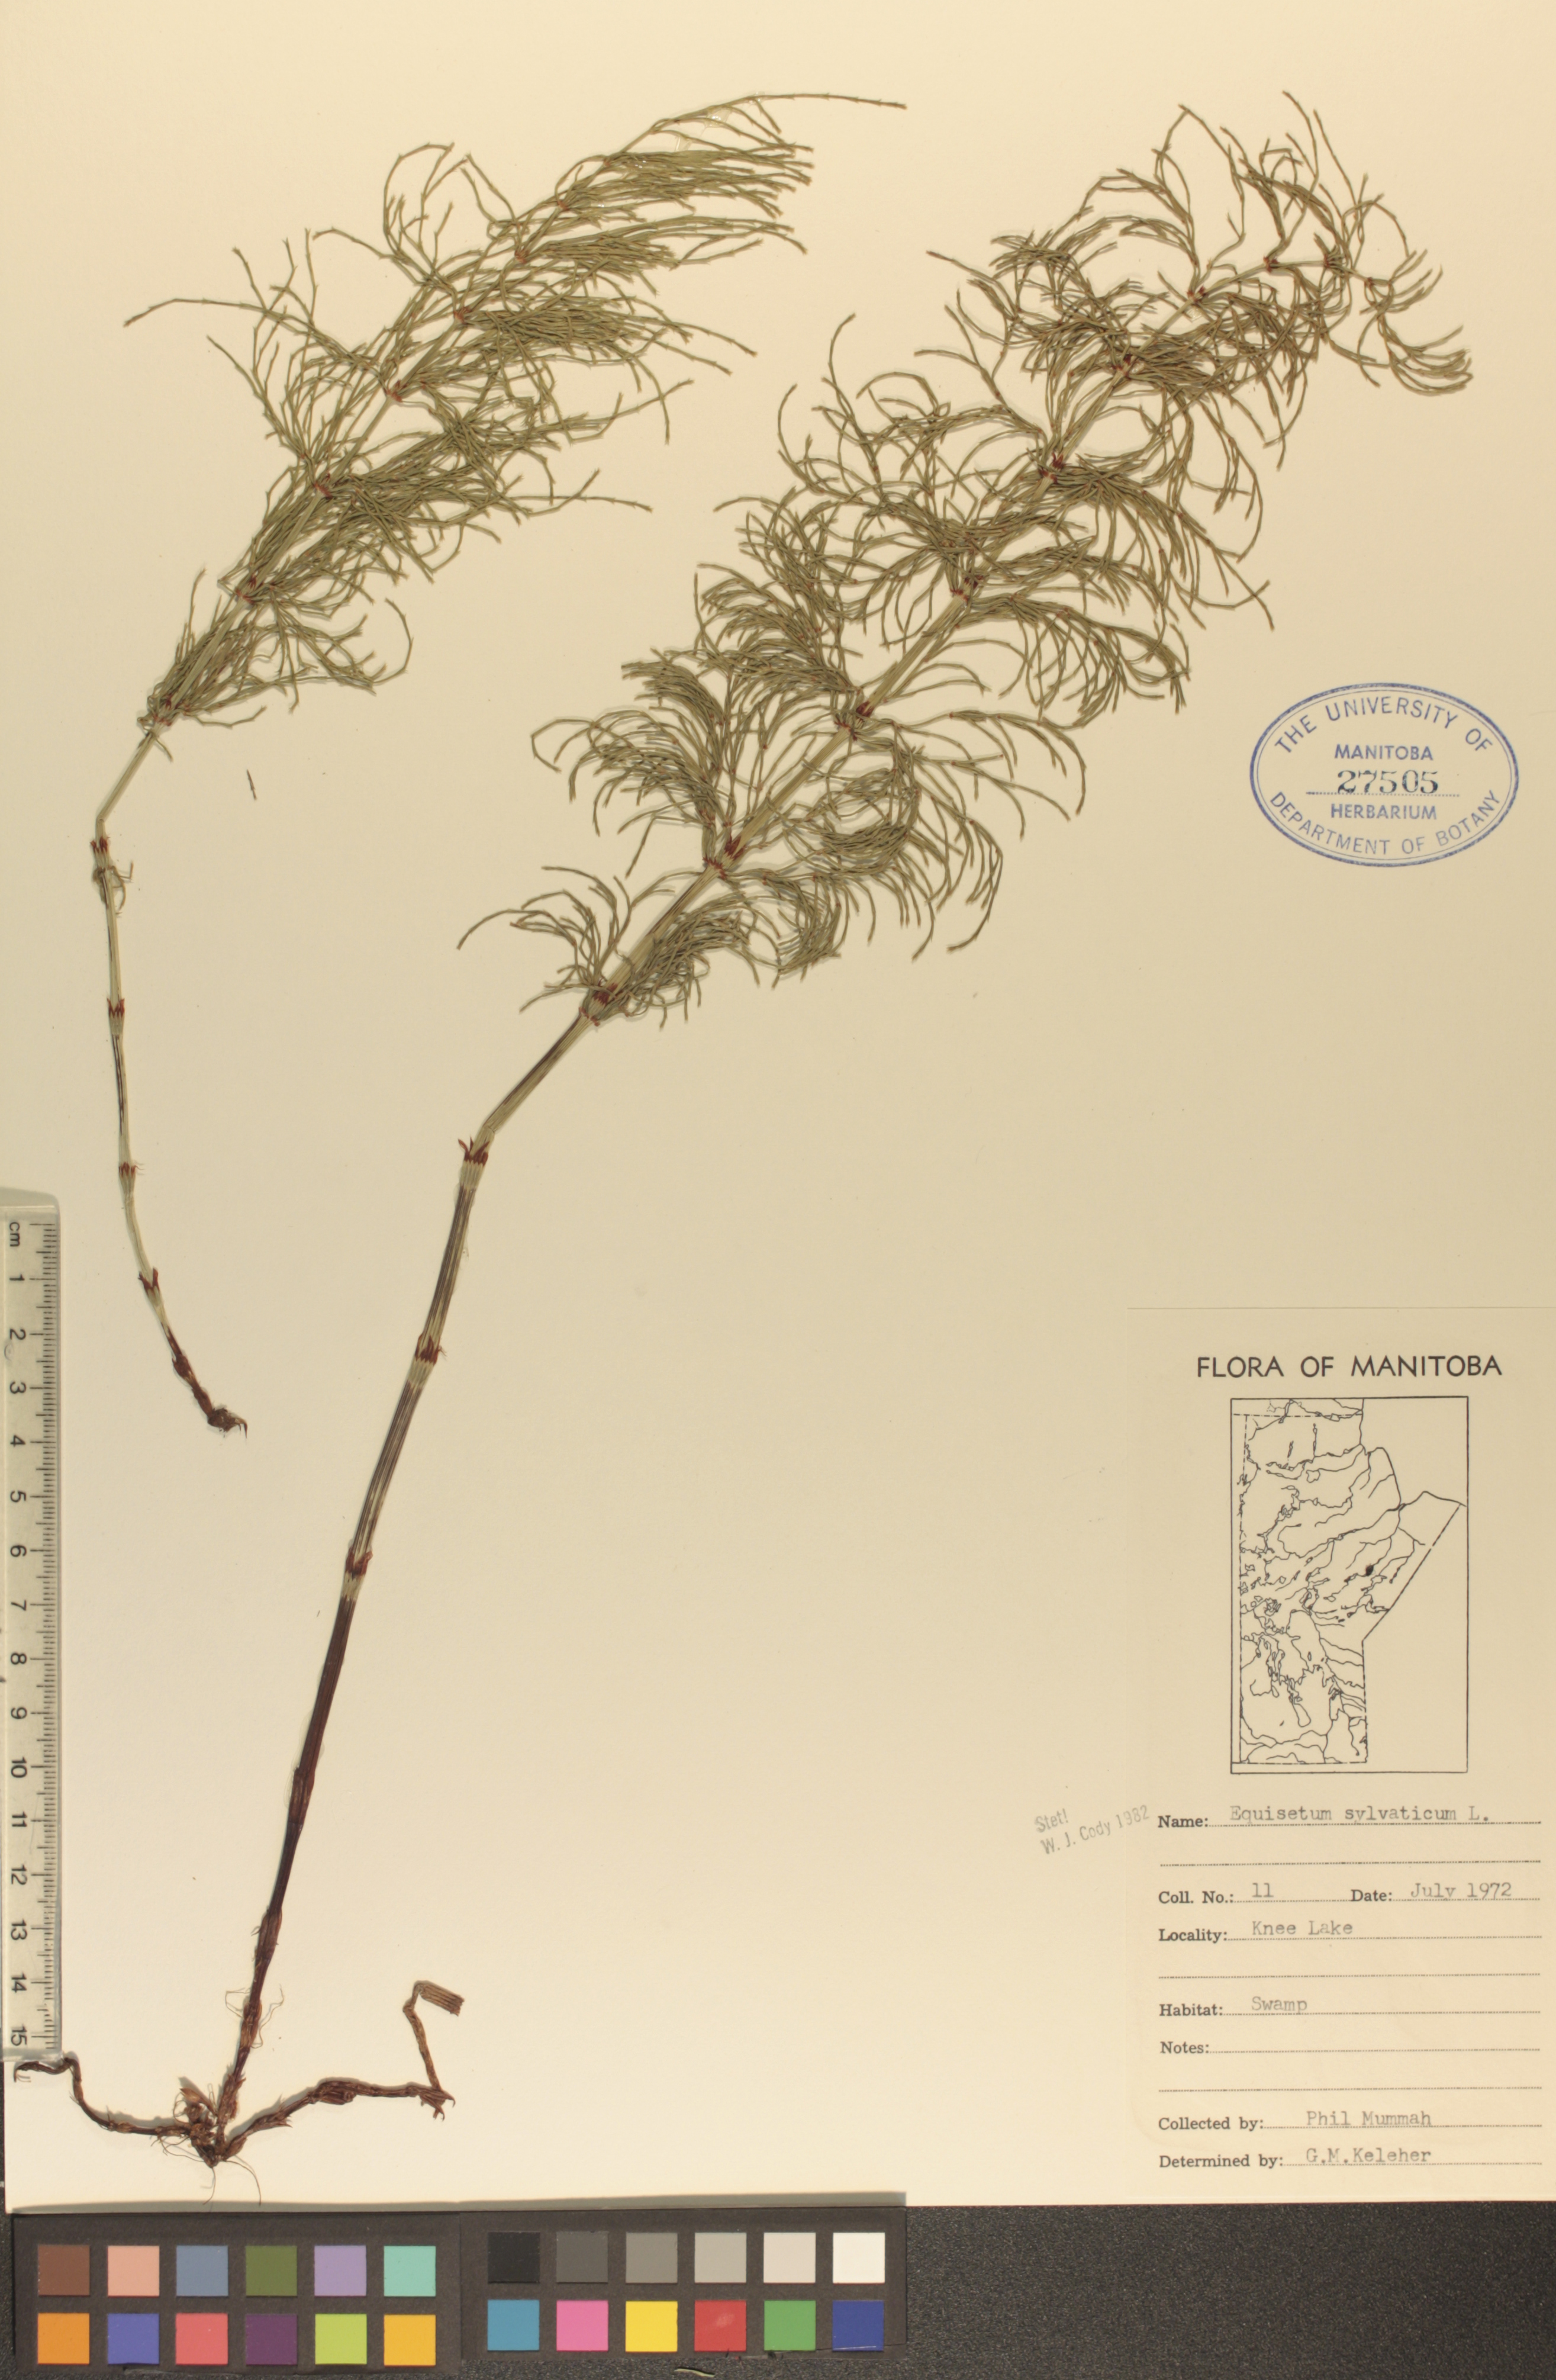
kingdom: Plantae
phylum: Tracheophyta
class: Polypodiopsida
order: Equisetales
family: Equisetaceae
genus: Equisetum
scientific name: Equisetum sylvaticum
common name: Wood horsetail
